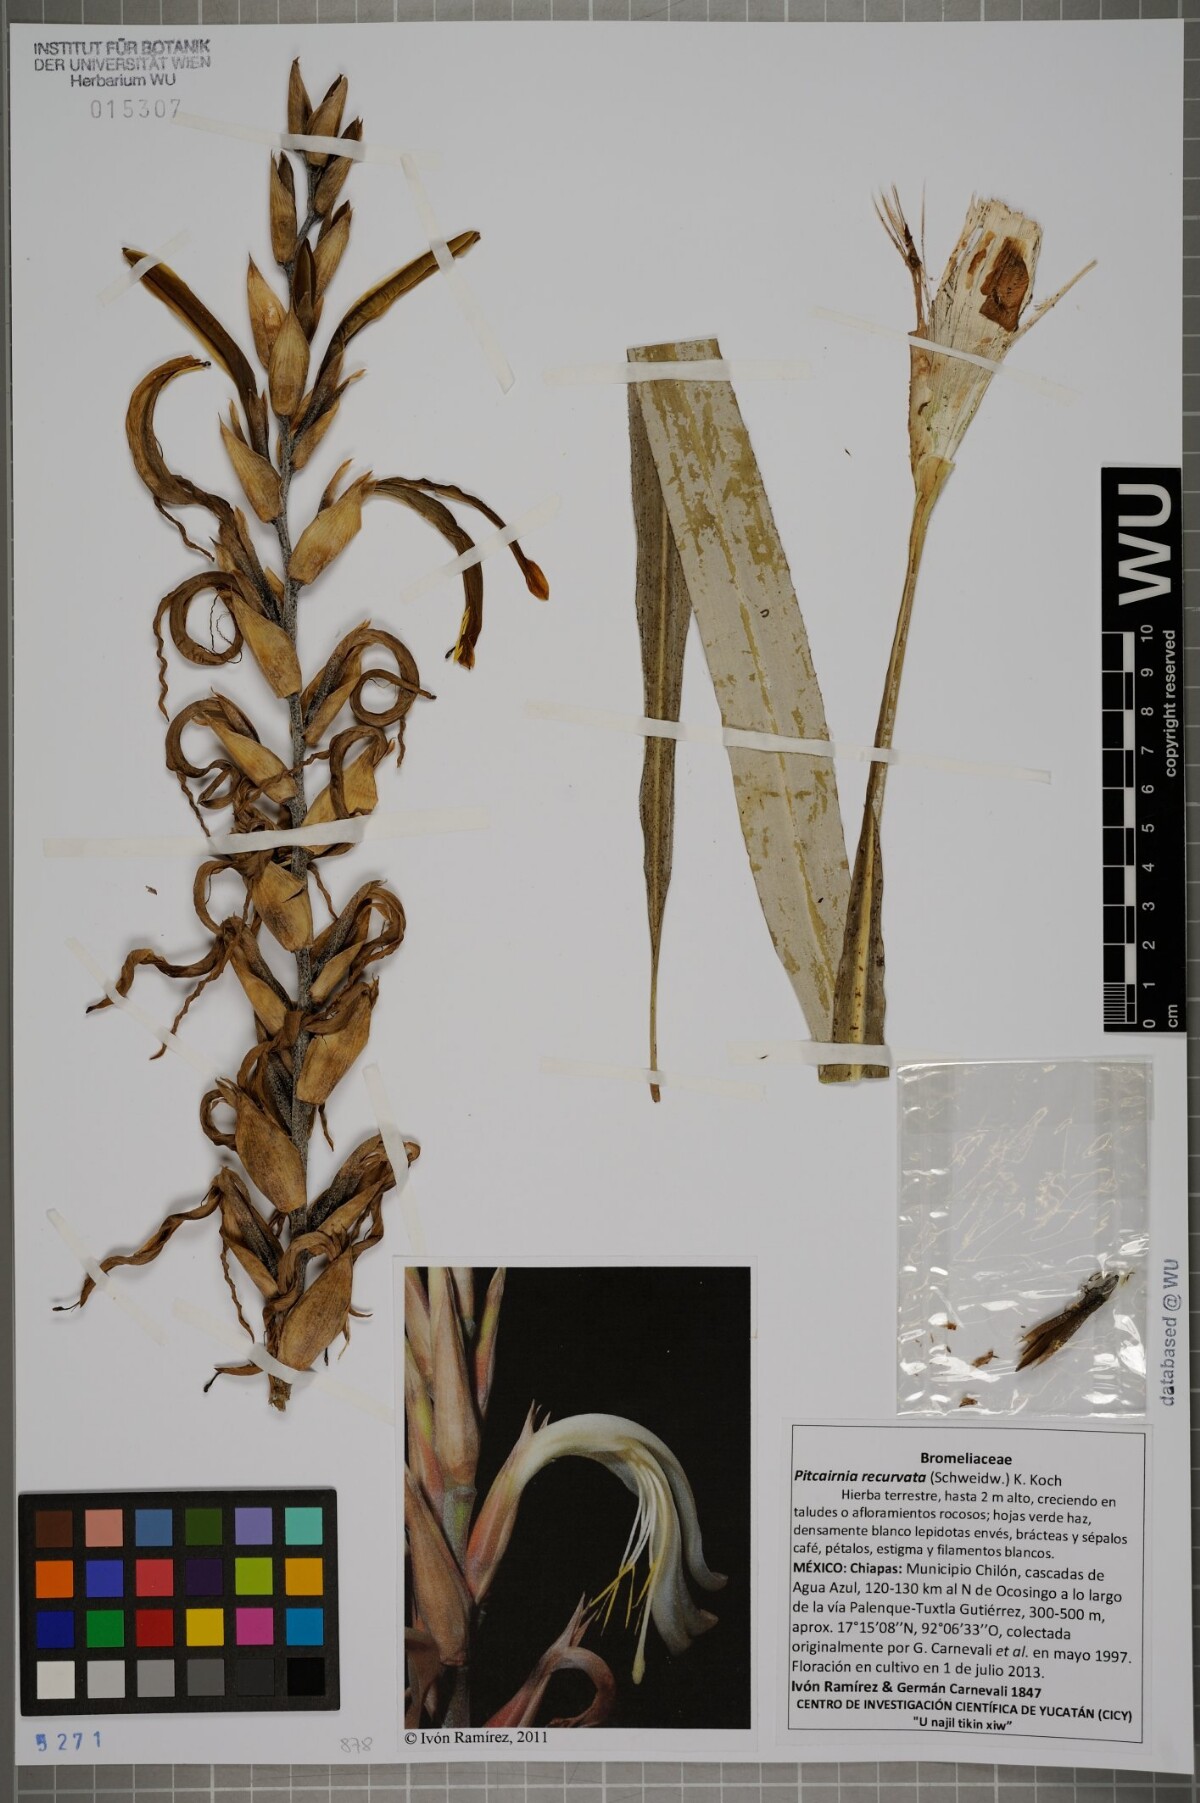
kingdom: Plantae
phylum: Tracheophyta
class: Liliopsida
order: Poales
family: Bromeliaceae
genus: Pitcairnia
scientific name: Pitcairnia recurvata
